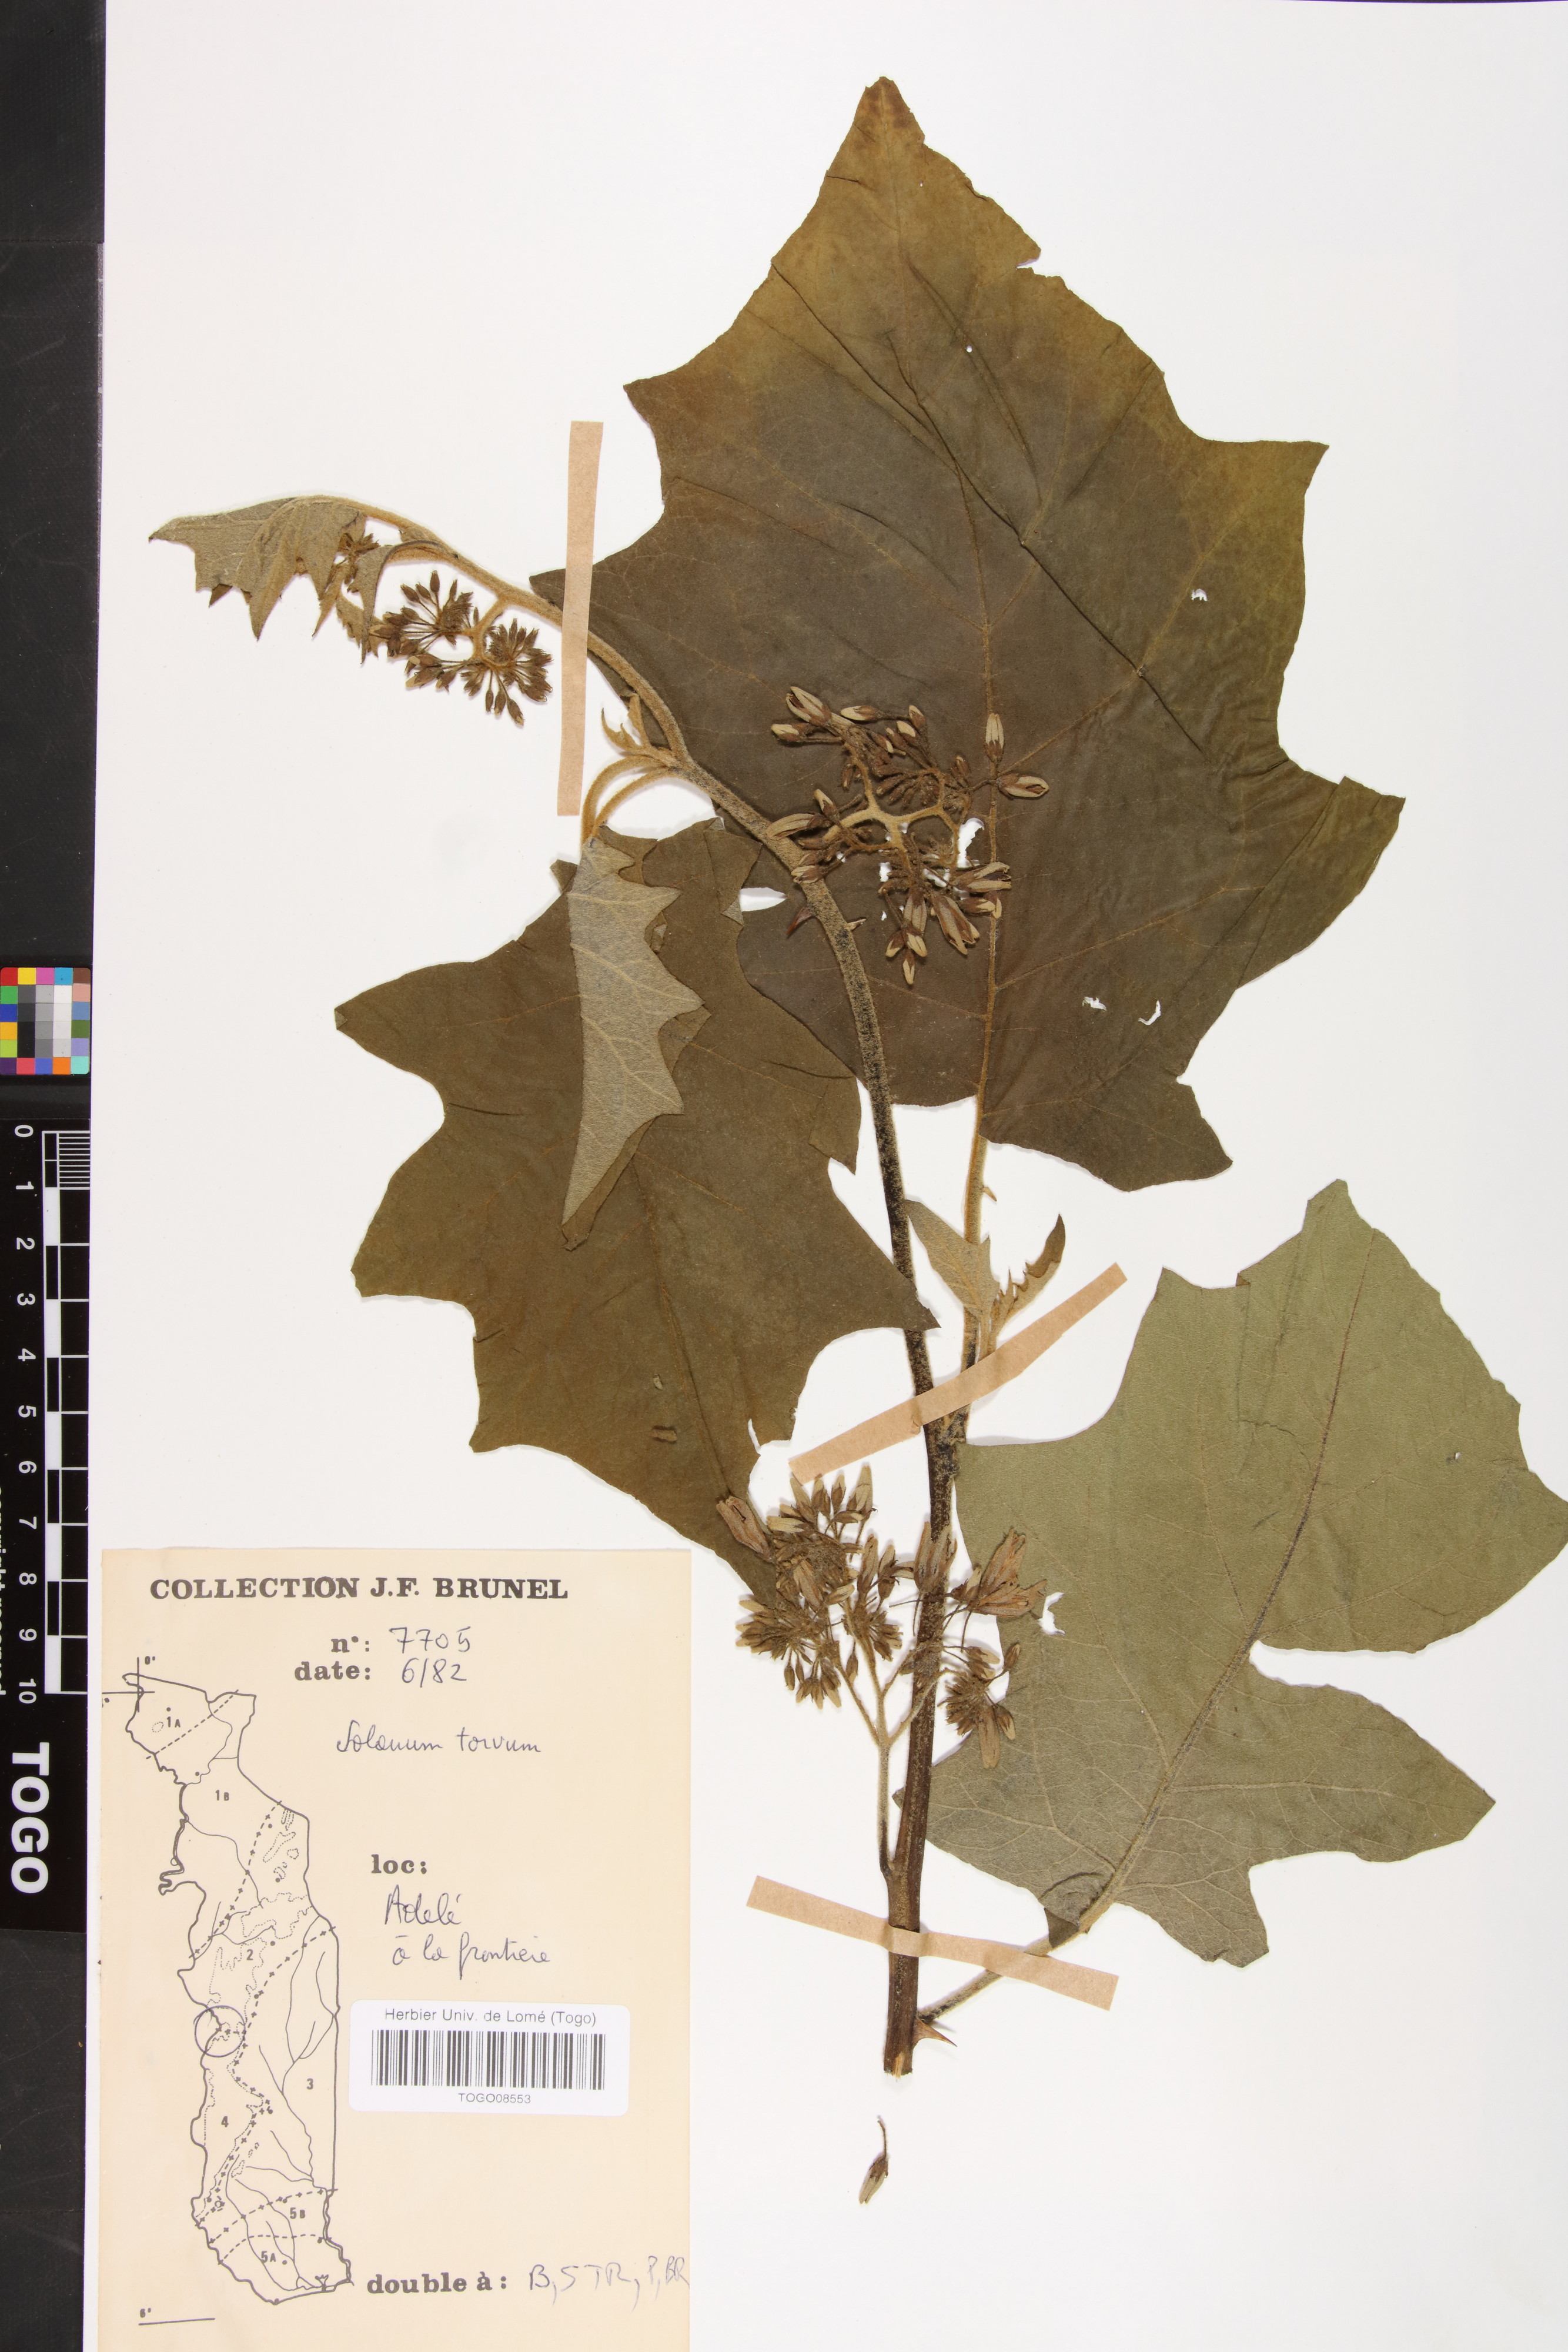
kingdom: Plantae
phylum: Tracheophyta
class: Magnoliopsida
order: Solanales
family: Solanaceae
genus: Solanum
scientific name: Solanum torvum
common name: Turkey berry
